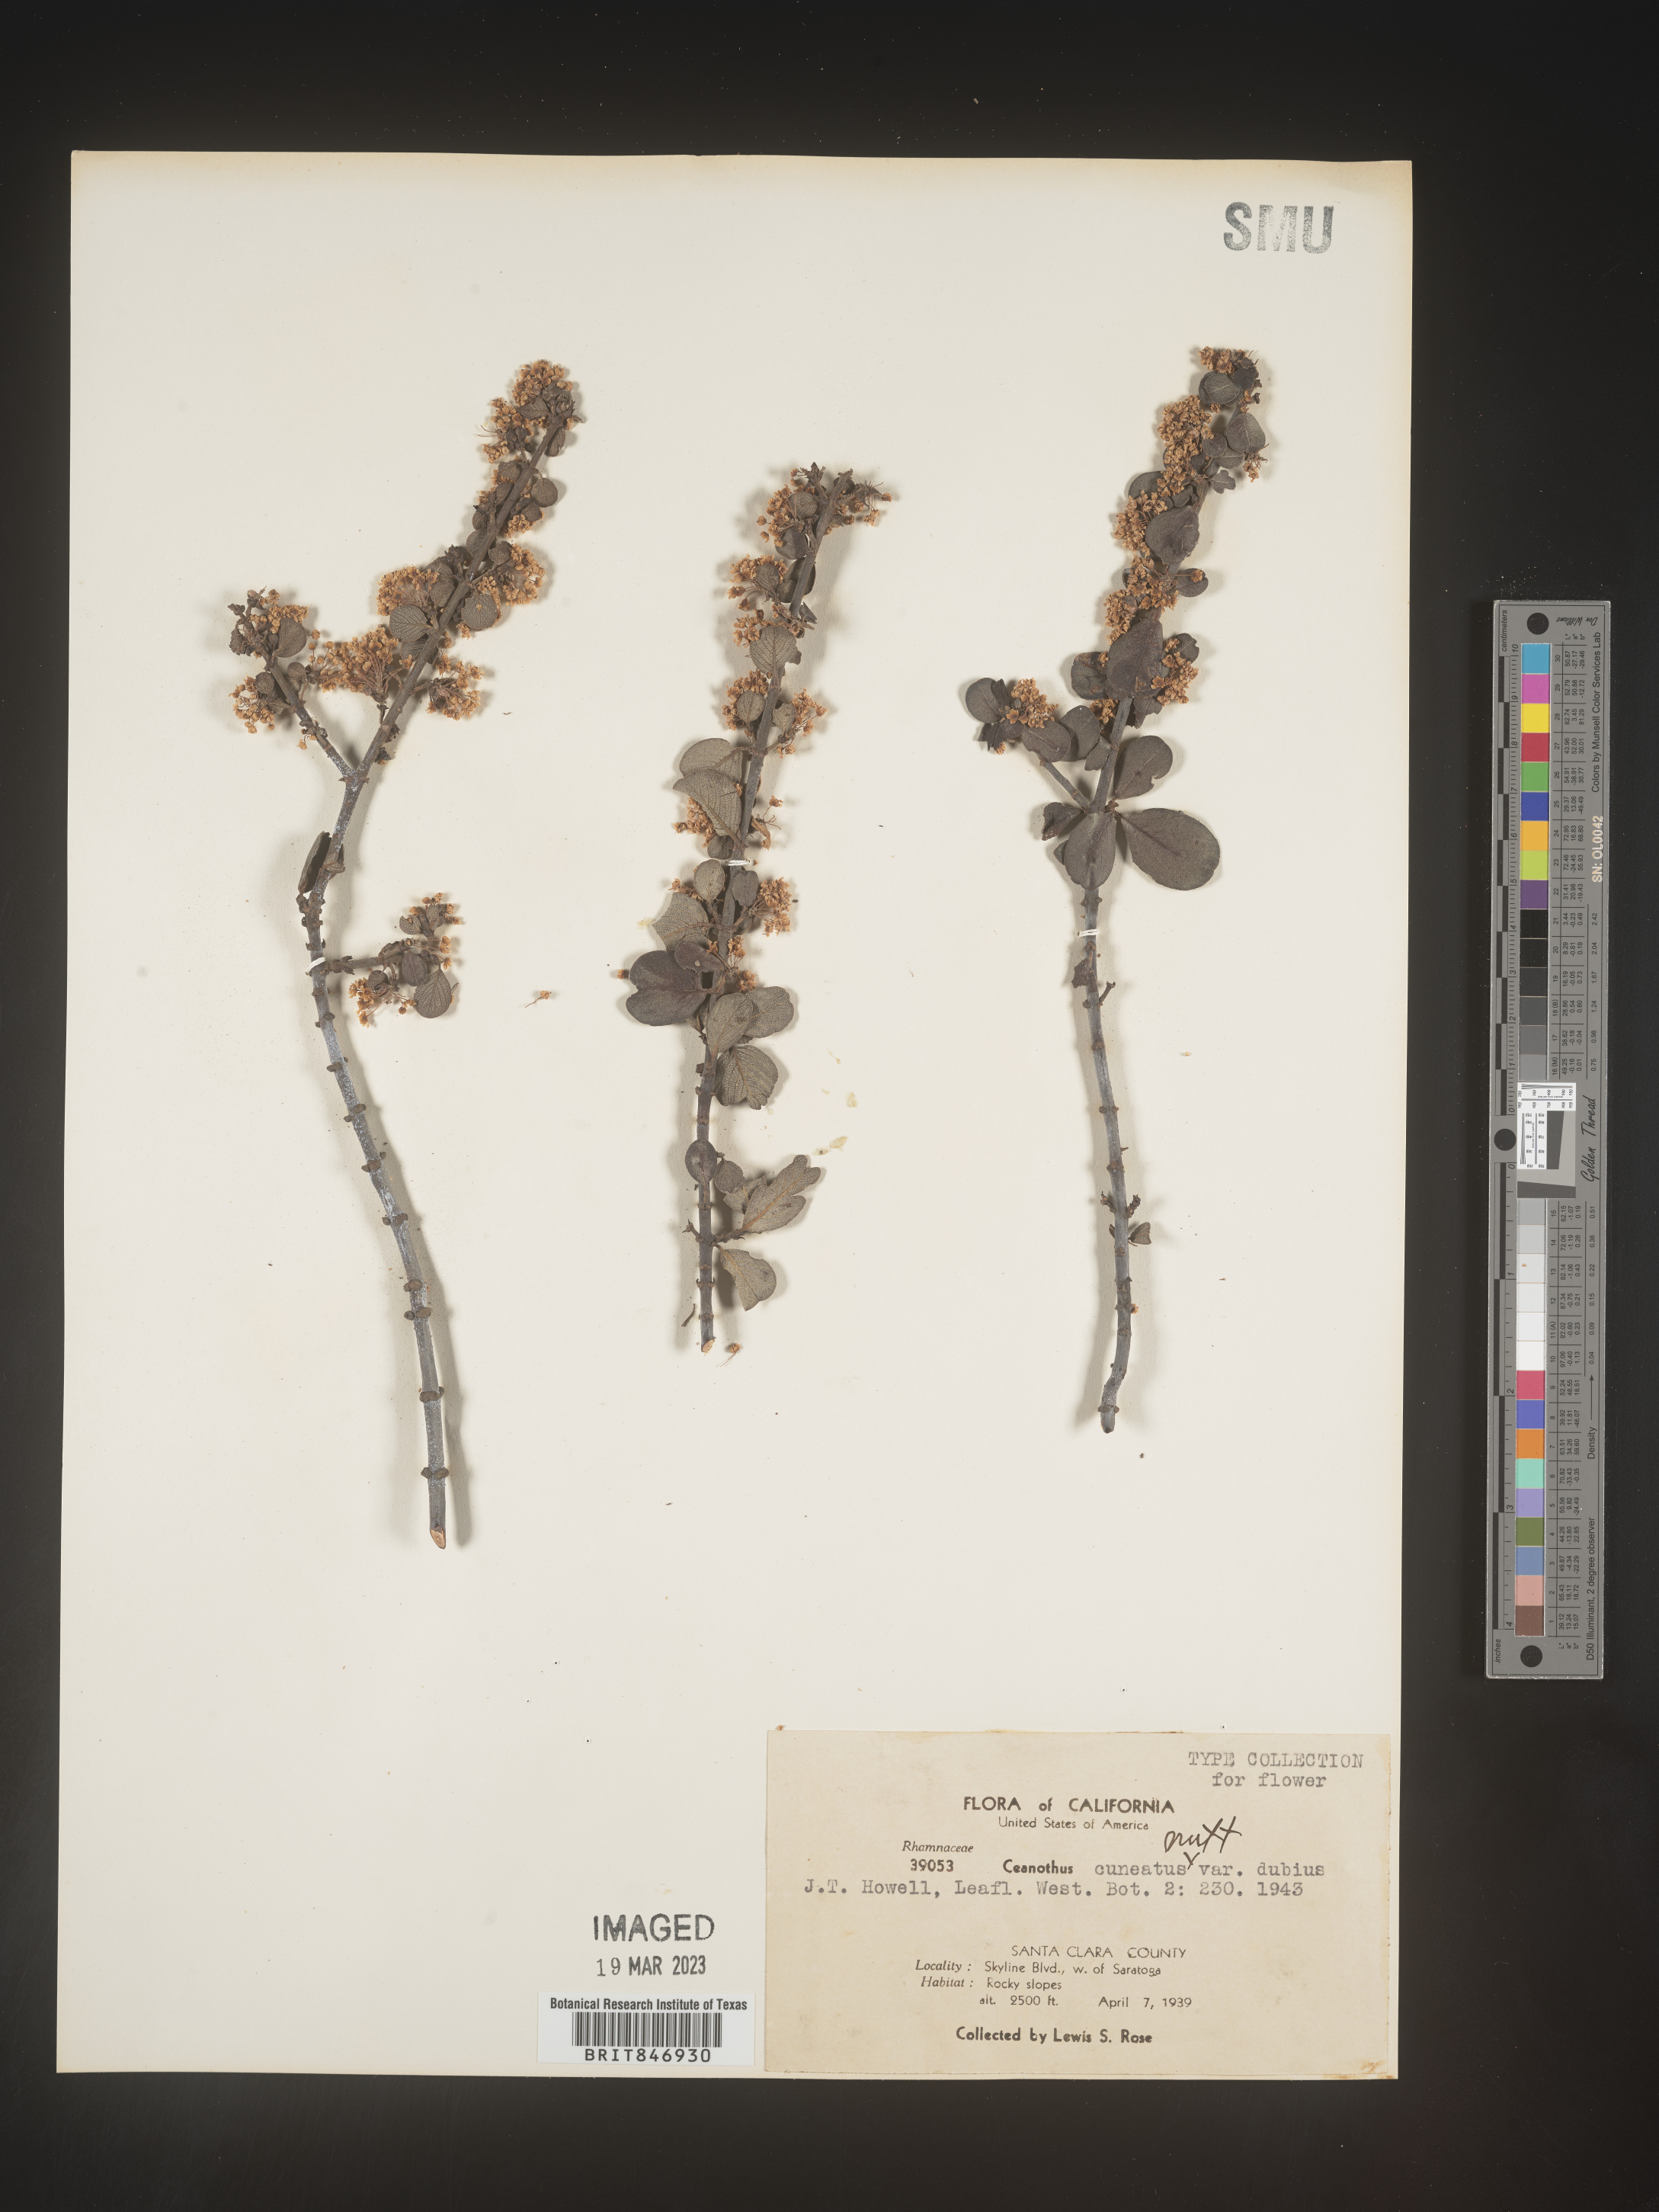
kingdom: Plantae
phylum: Tracheophyta
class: Magnoliopsida
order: Rosales
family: Rhamnaceae
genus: Ceanothus
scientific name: Ceanothus cuneatus
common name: Cuneate ceanothus
